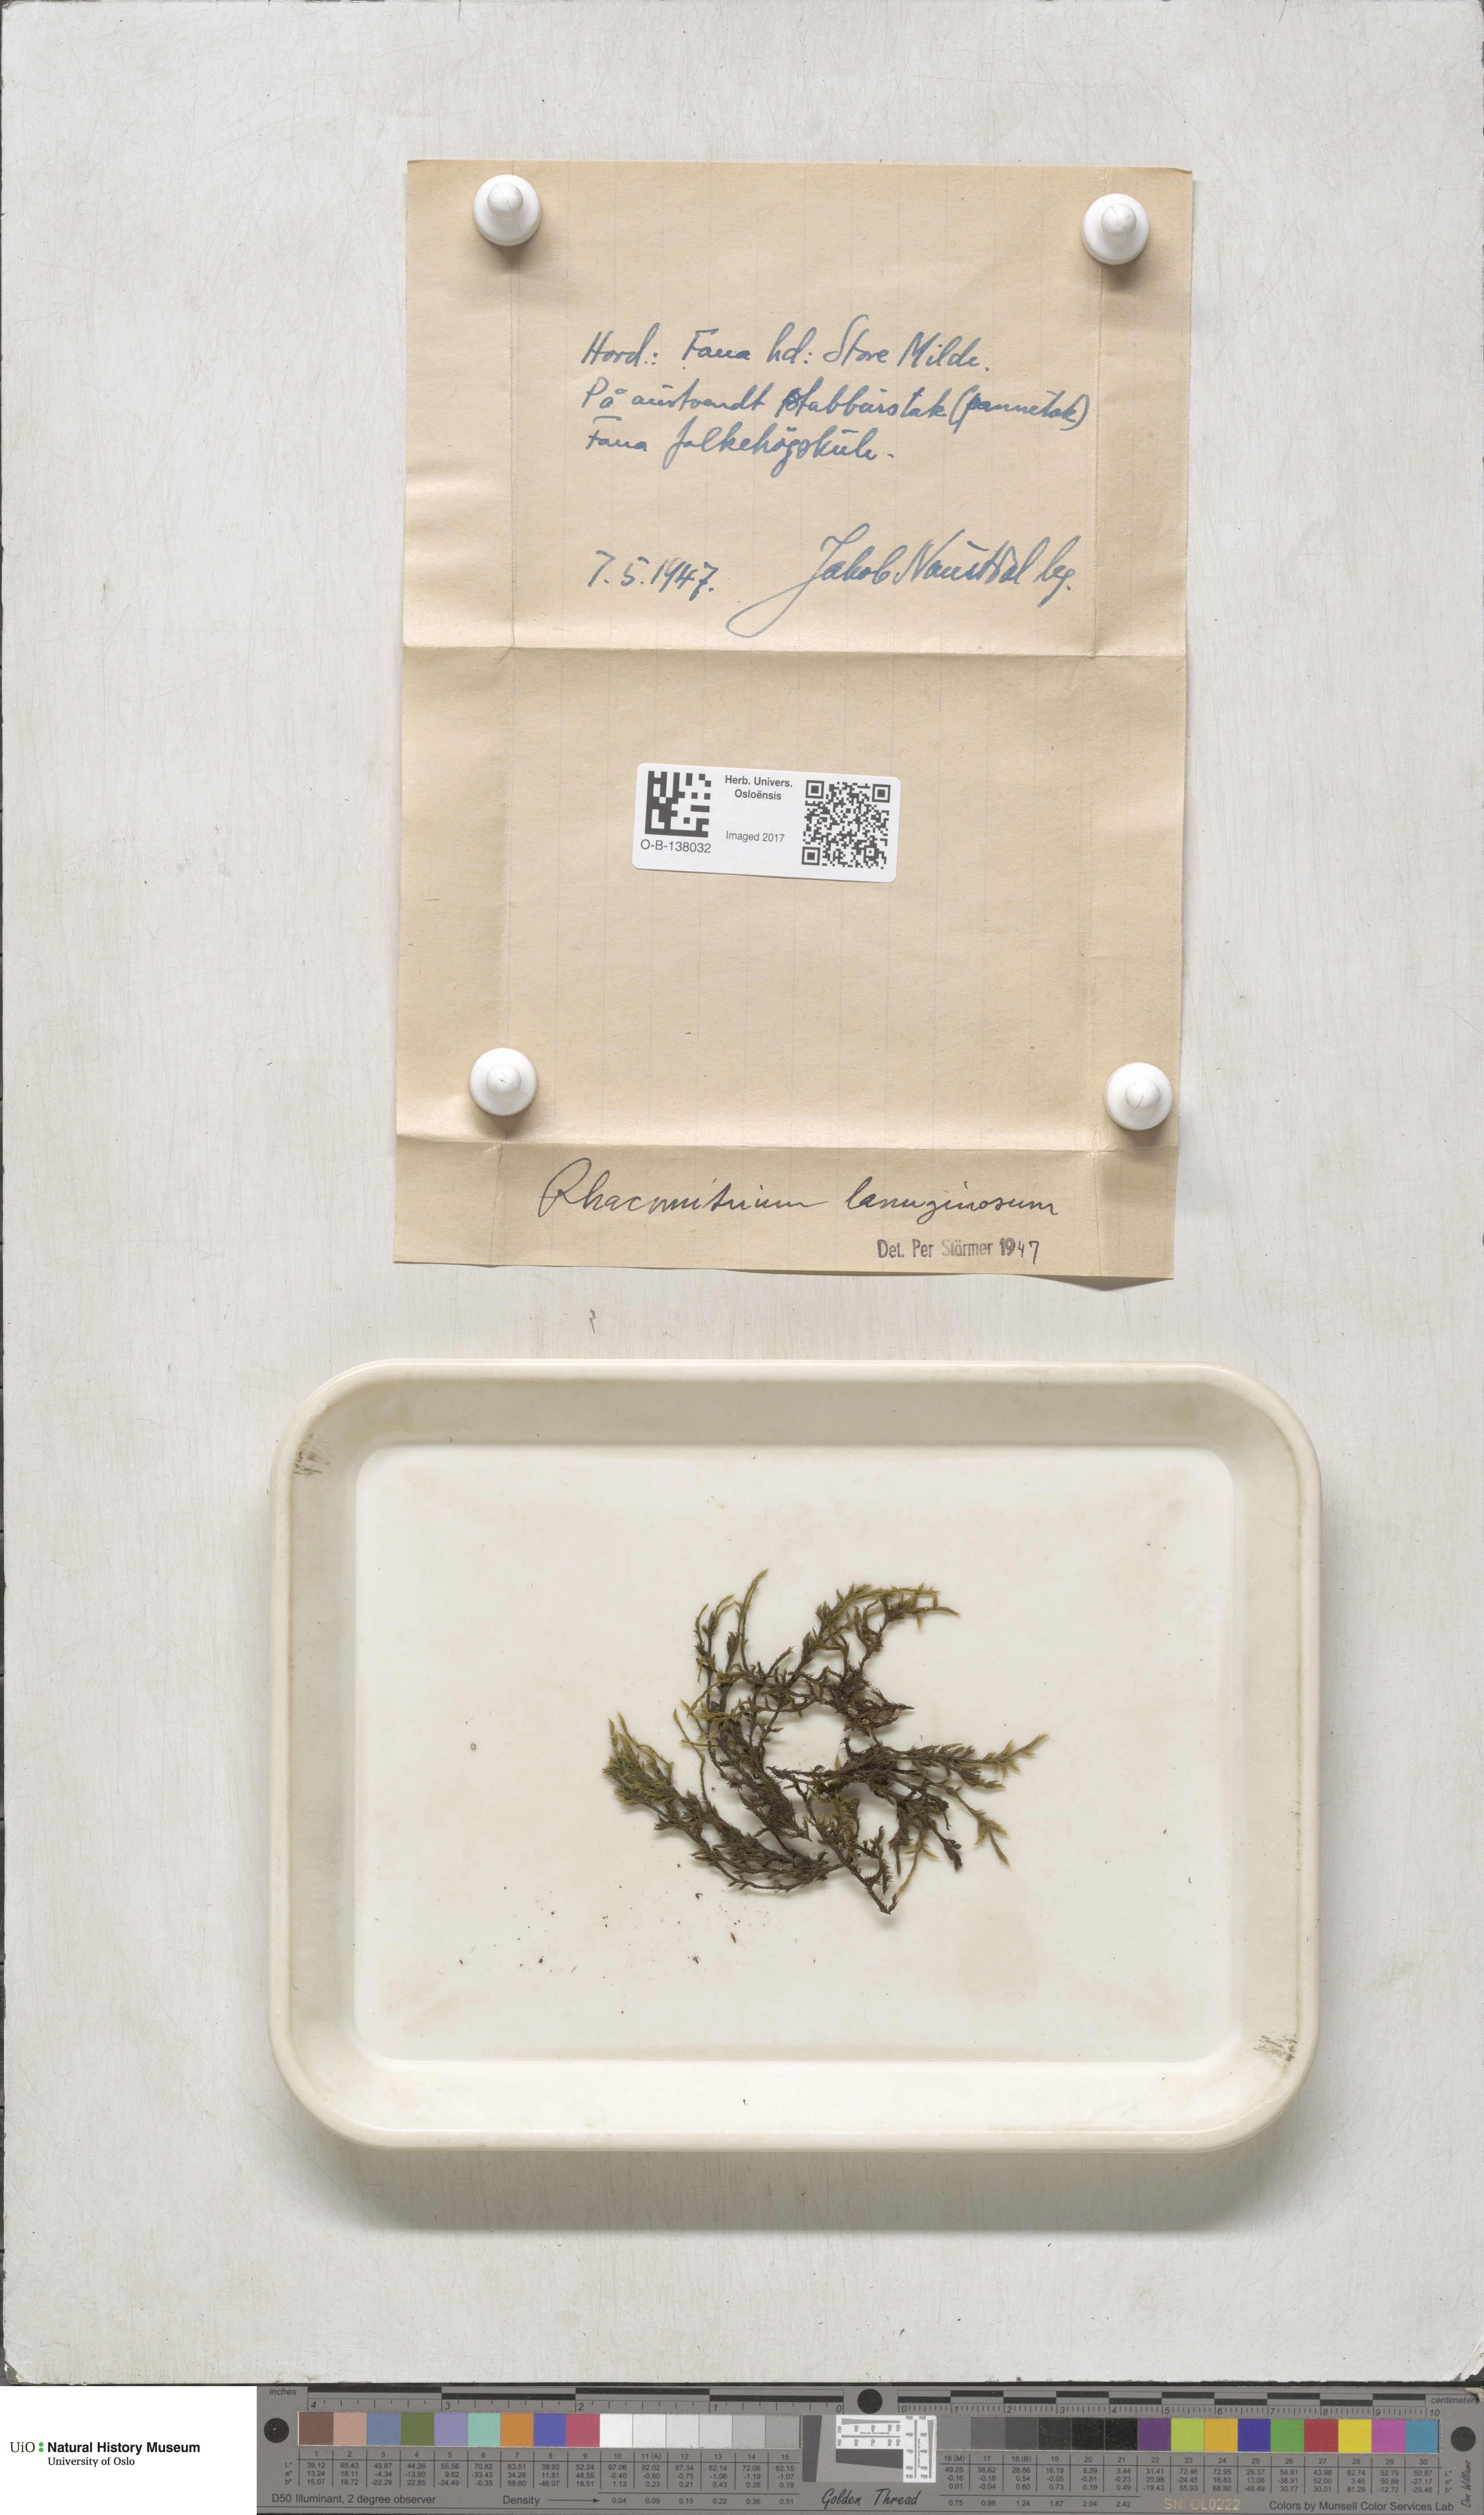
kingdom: Plantae
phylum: Bryophyta
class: Bryopsida
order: Grimmiales
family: Grimmiaceae
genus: Racomitrium
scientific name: Racomitrium lanuginosum
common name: Hoary rock moss
